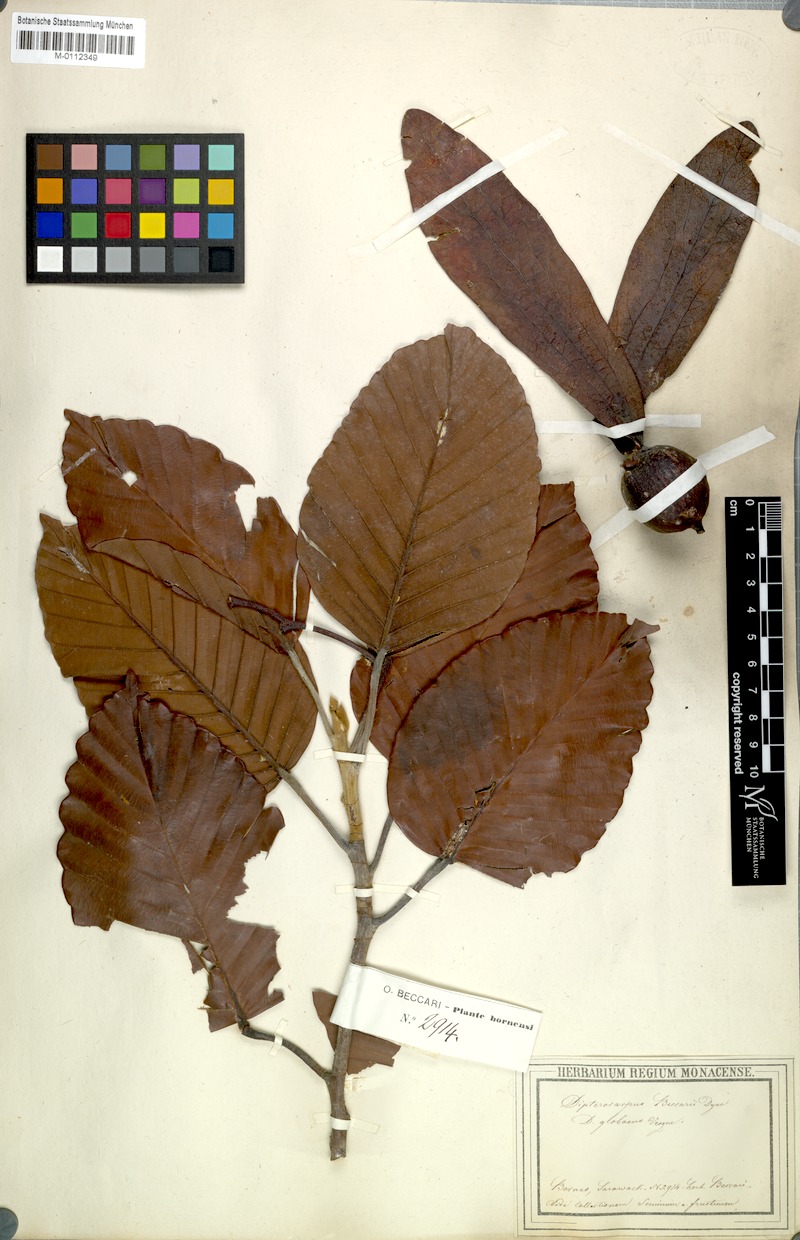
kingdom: Plantae
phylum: Tracheophyta
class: Magnoliopsida
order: Malvales
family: Dipterocarpaceae
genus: Dipterocarpus
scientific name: Dipterocarpus globosus
